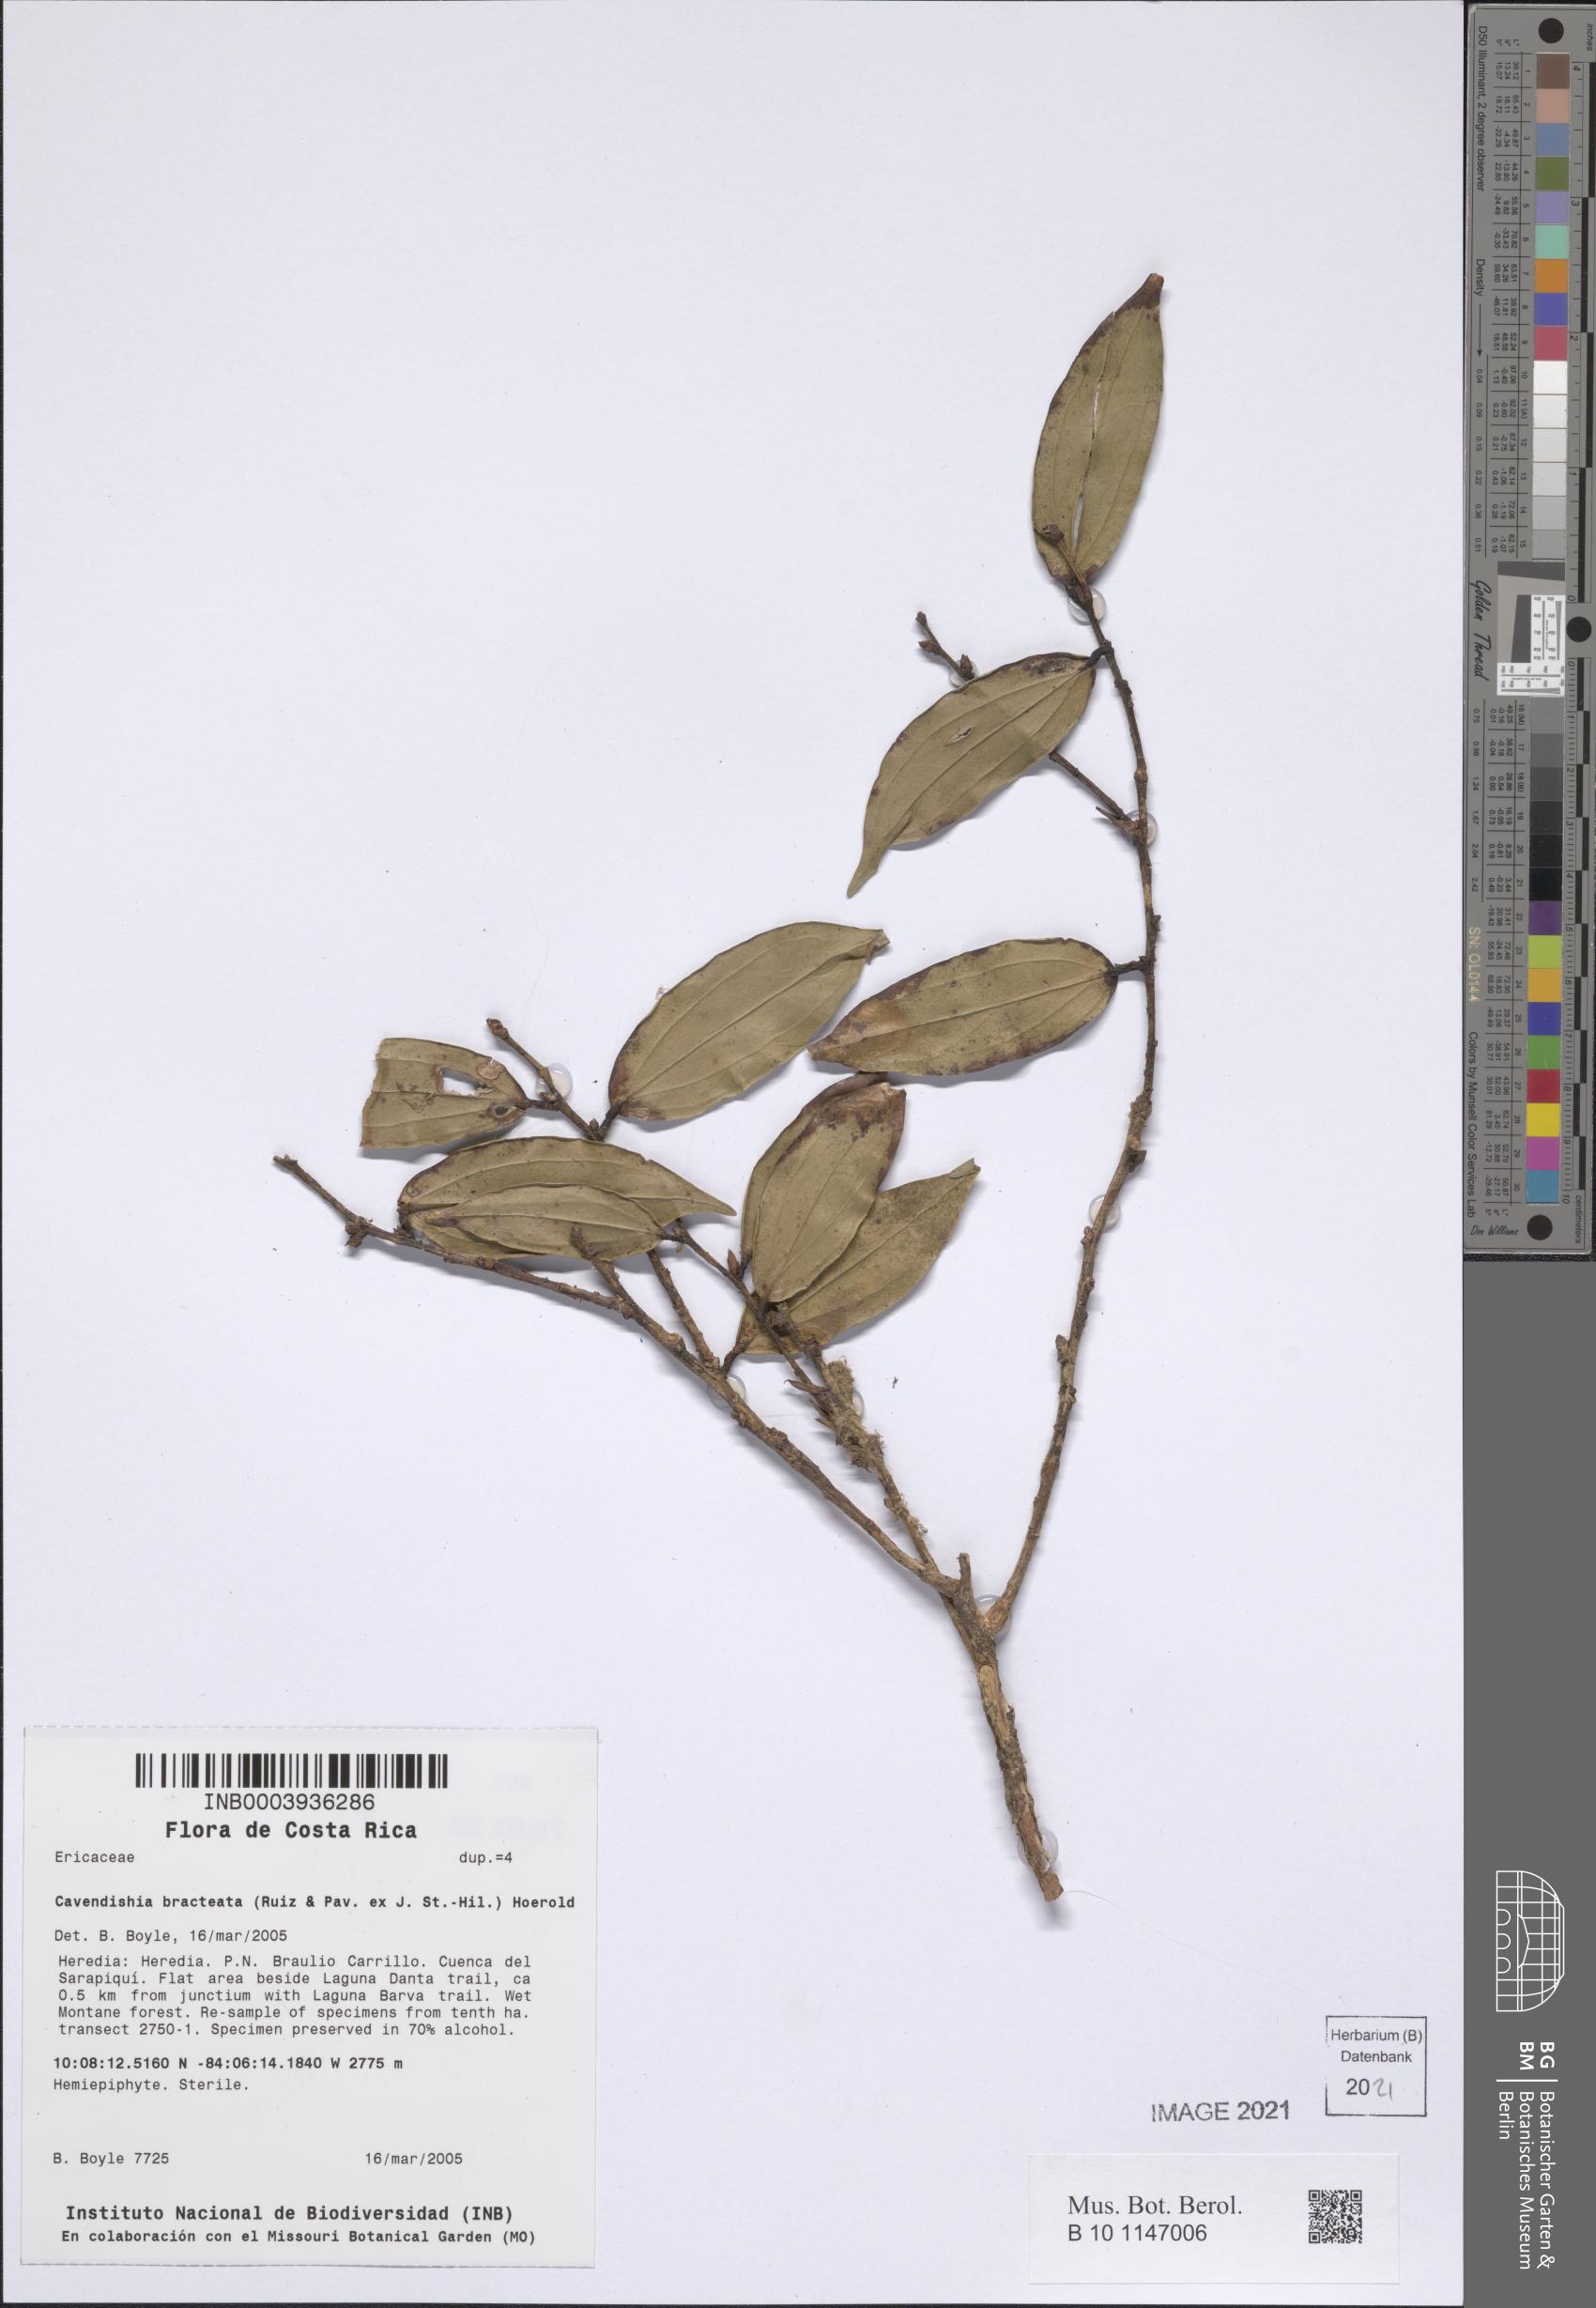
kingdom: Plantae
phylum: Tracheophyta
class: Magnoliopsida
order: Ericales
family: Ericaceae
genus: Cavendishia
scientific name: Cavendishia bracteata
